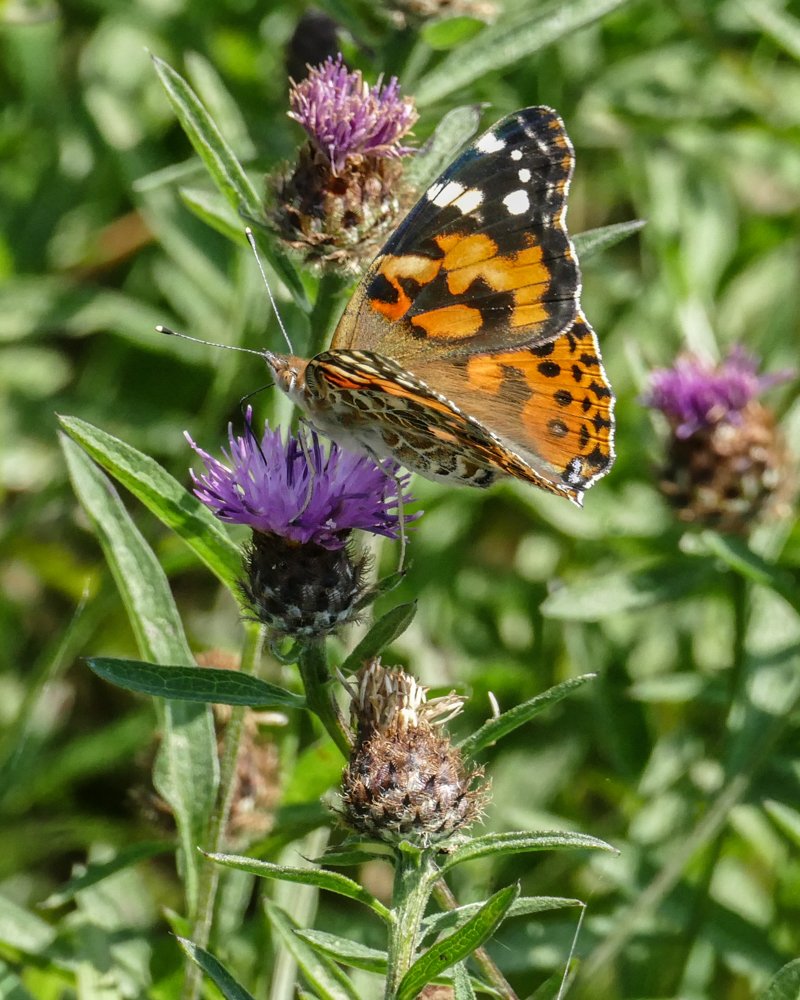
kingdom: Animalia
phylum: Arthropoda
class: Insecta
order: Lepidoptera
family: Nymphalidae
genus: Vanessa
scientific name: Vanessa cardui
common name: Painted Lady
